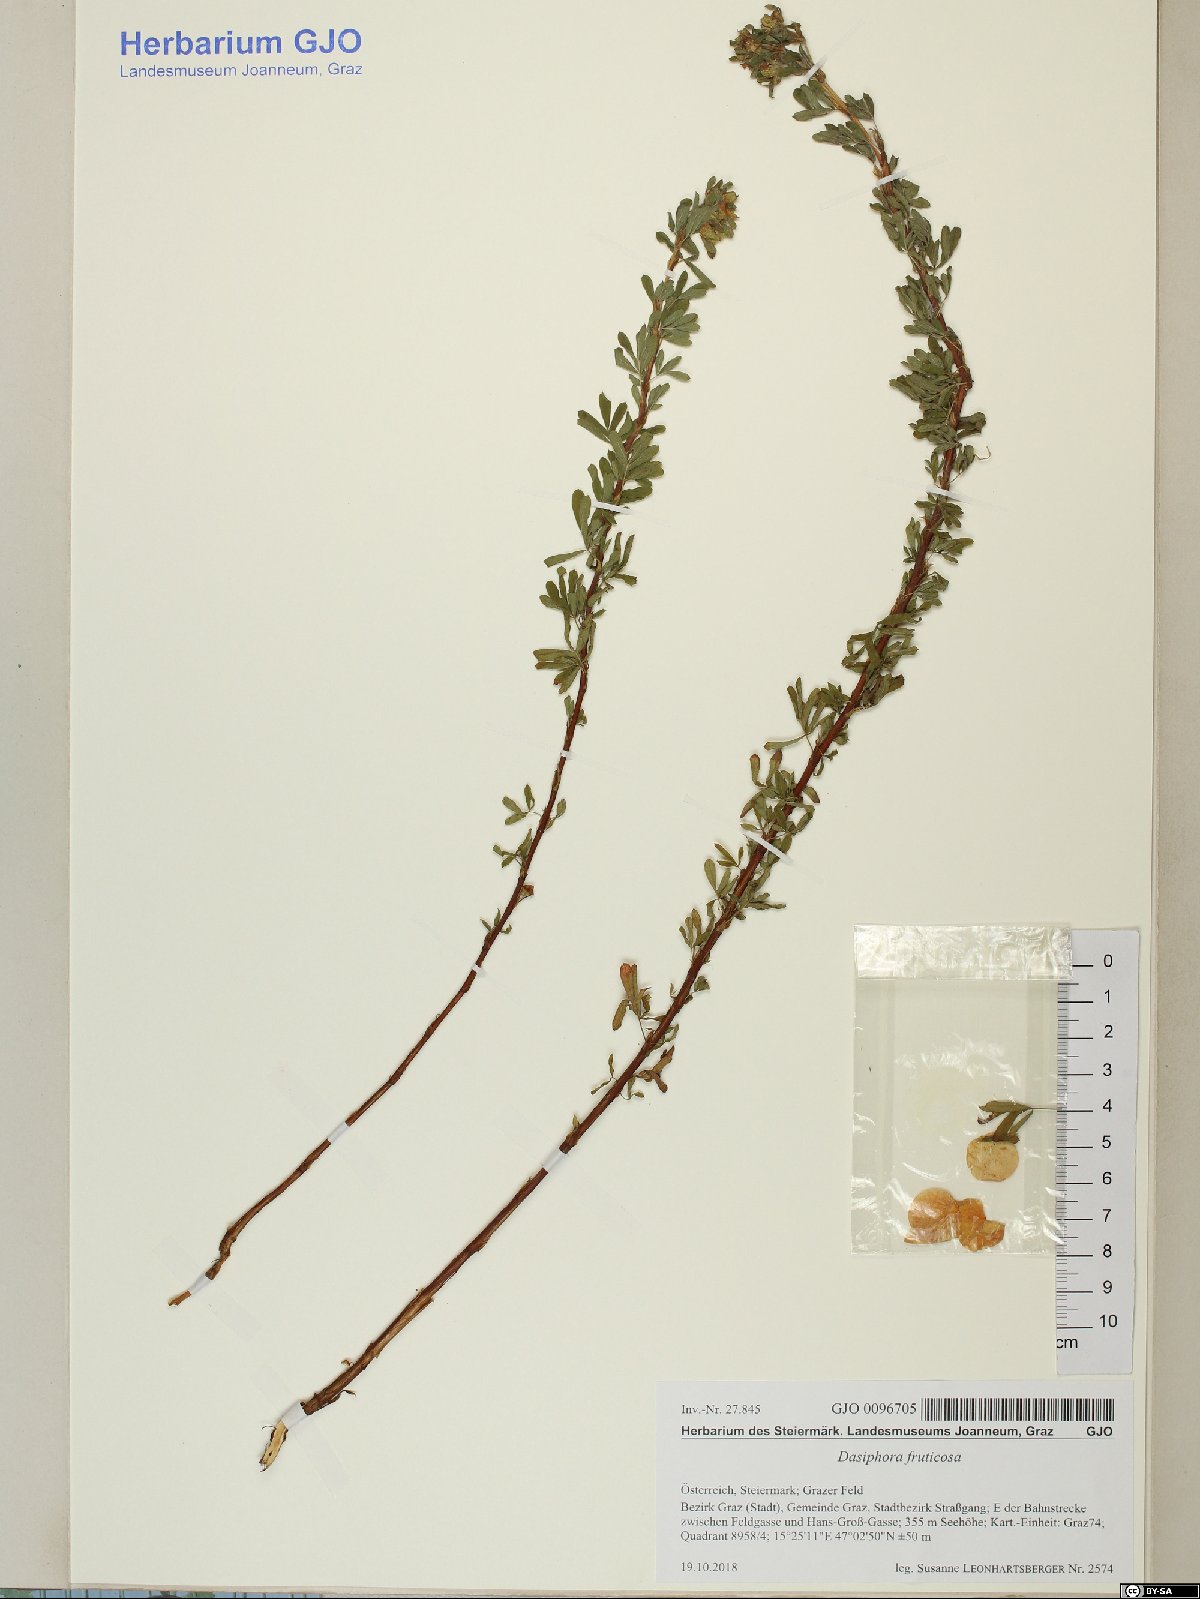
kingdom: Plantae
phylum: Tracheophyta
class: Magnoliopsida
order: Rosales
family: Rosaceae
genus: Dasiphora
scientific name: Dasiphora fruticosa
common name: Shrubby cinquefoil
